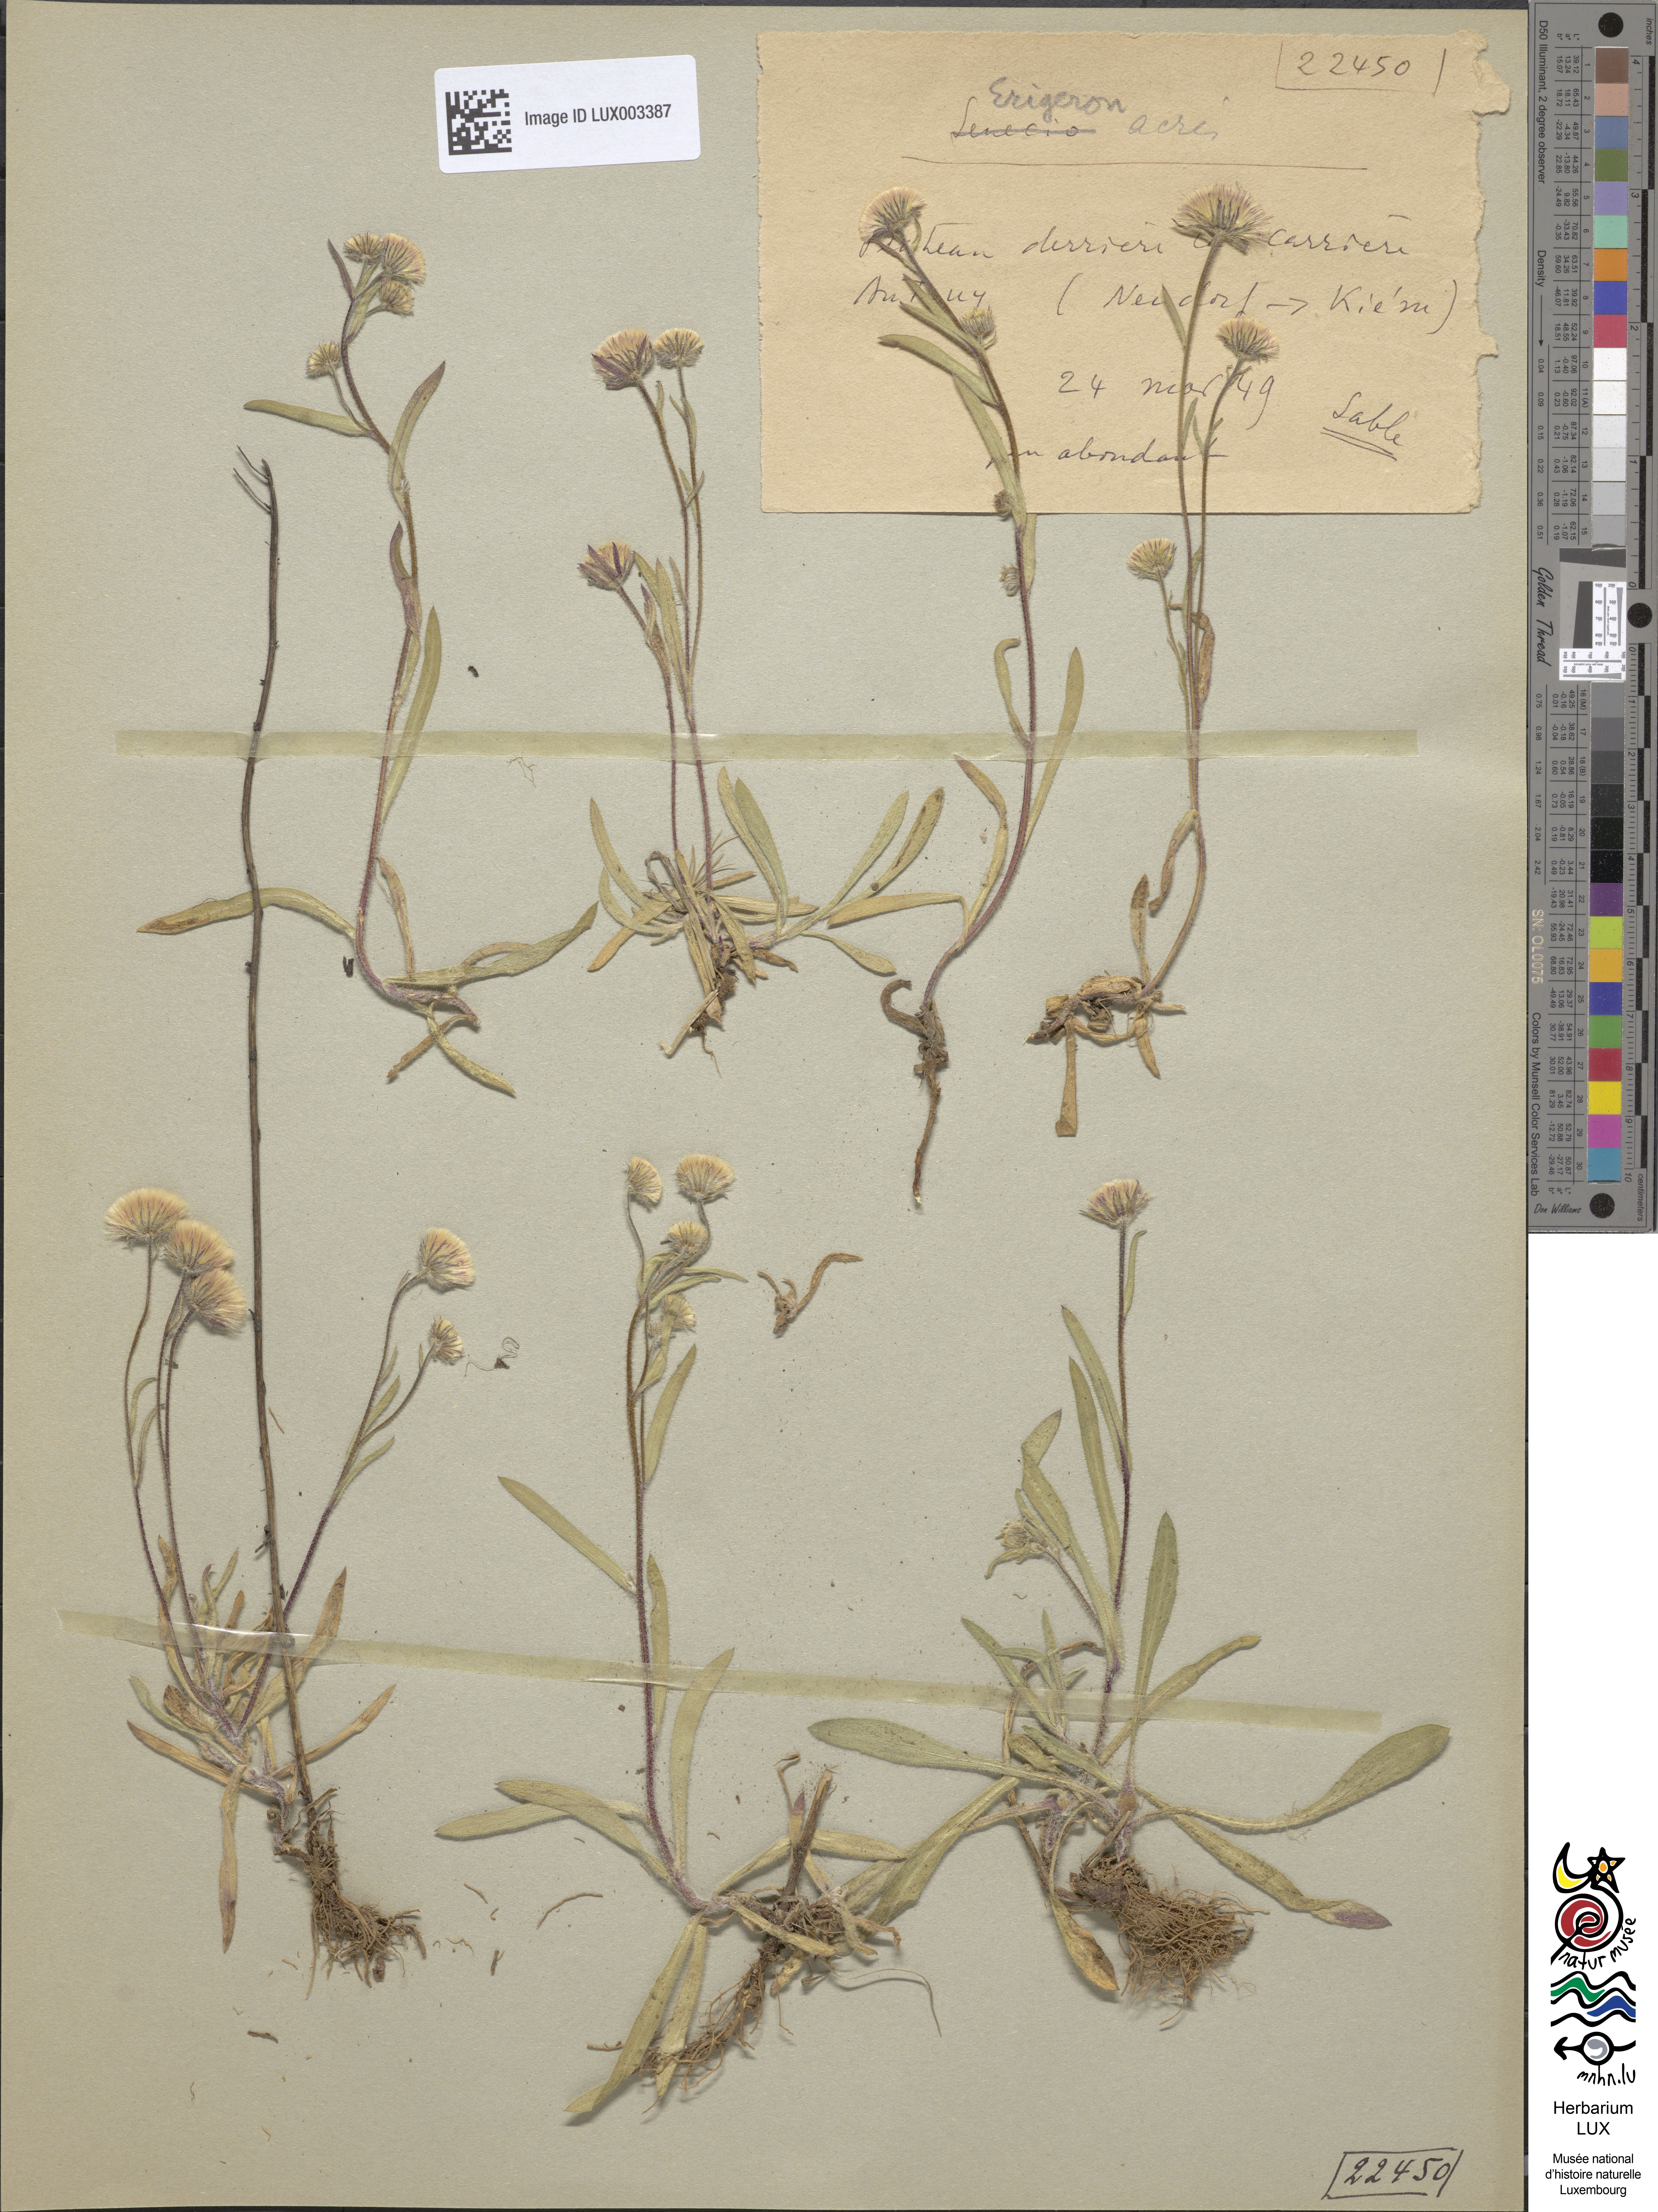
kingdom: Plantae
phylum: Tracheophyta
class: Magnoliopsida
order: Asterales
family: Asteraceae
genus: Erigeron
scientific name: Erigeron acer
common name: Blue fleabane
